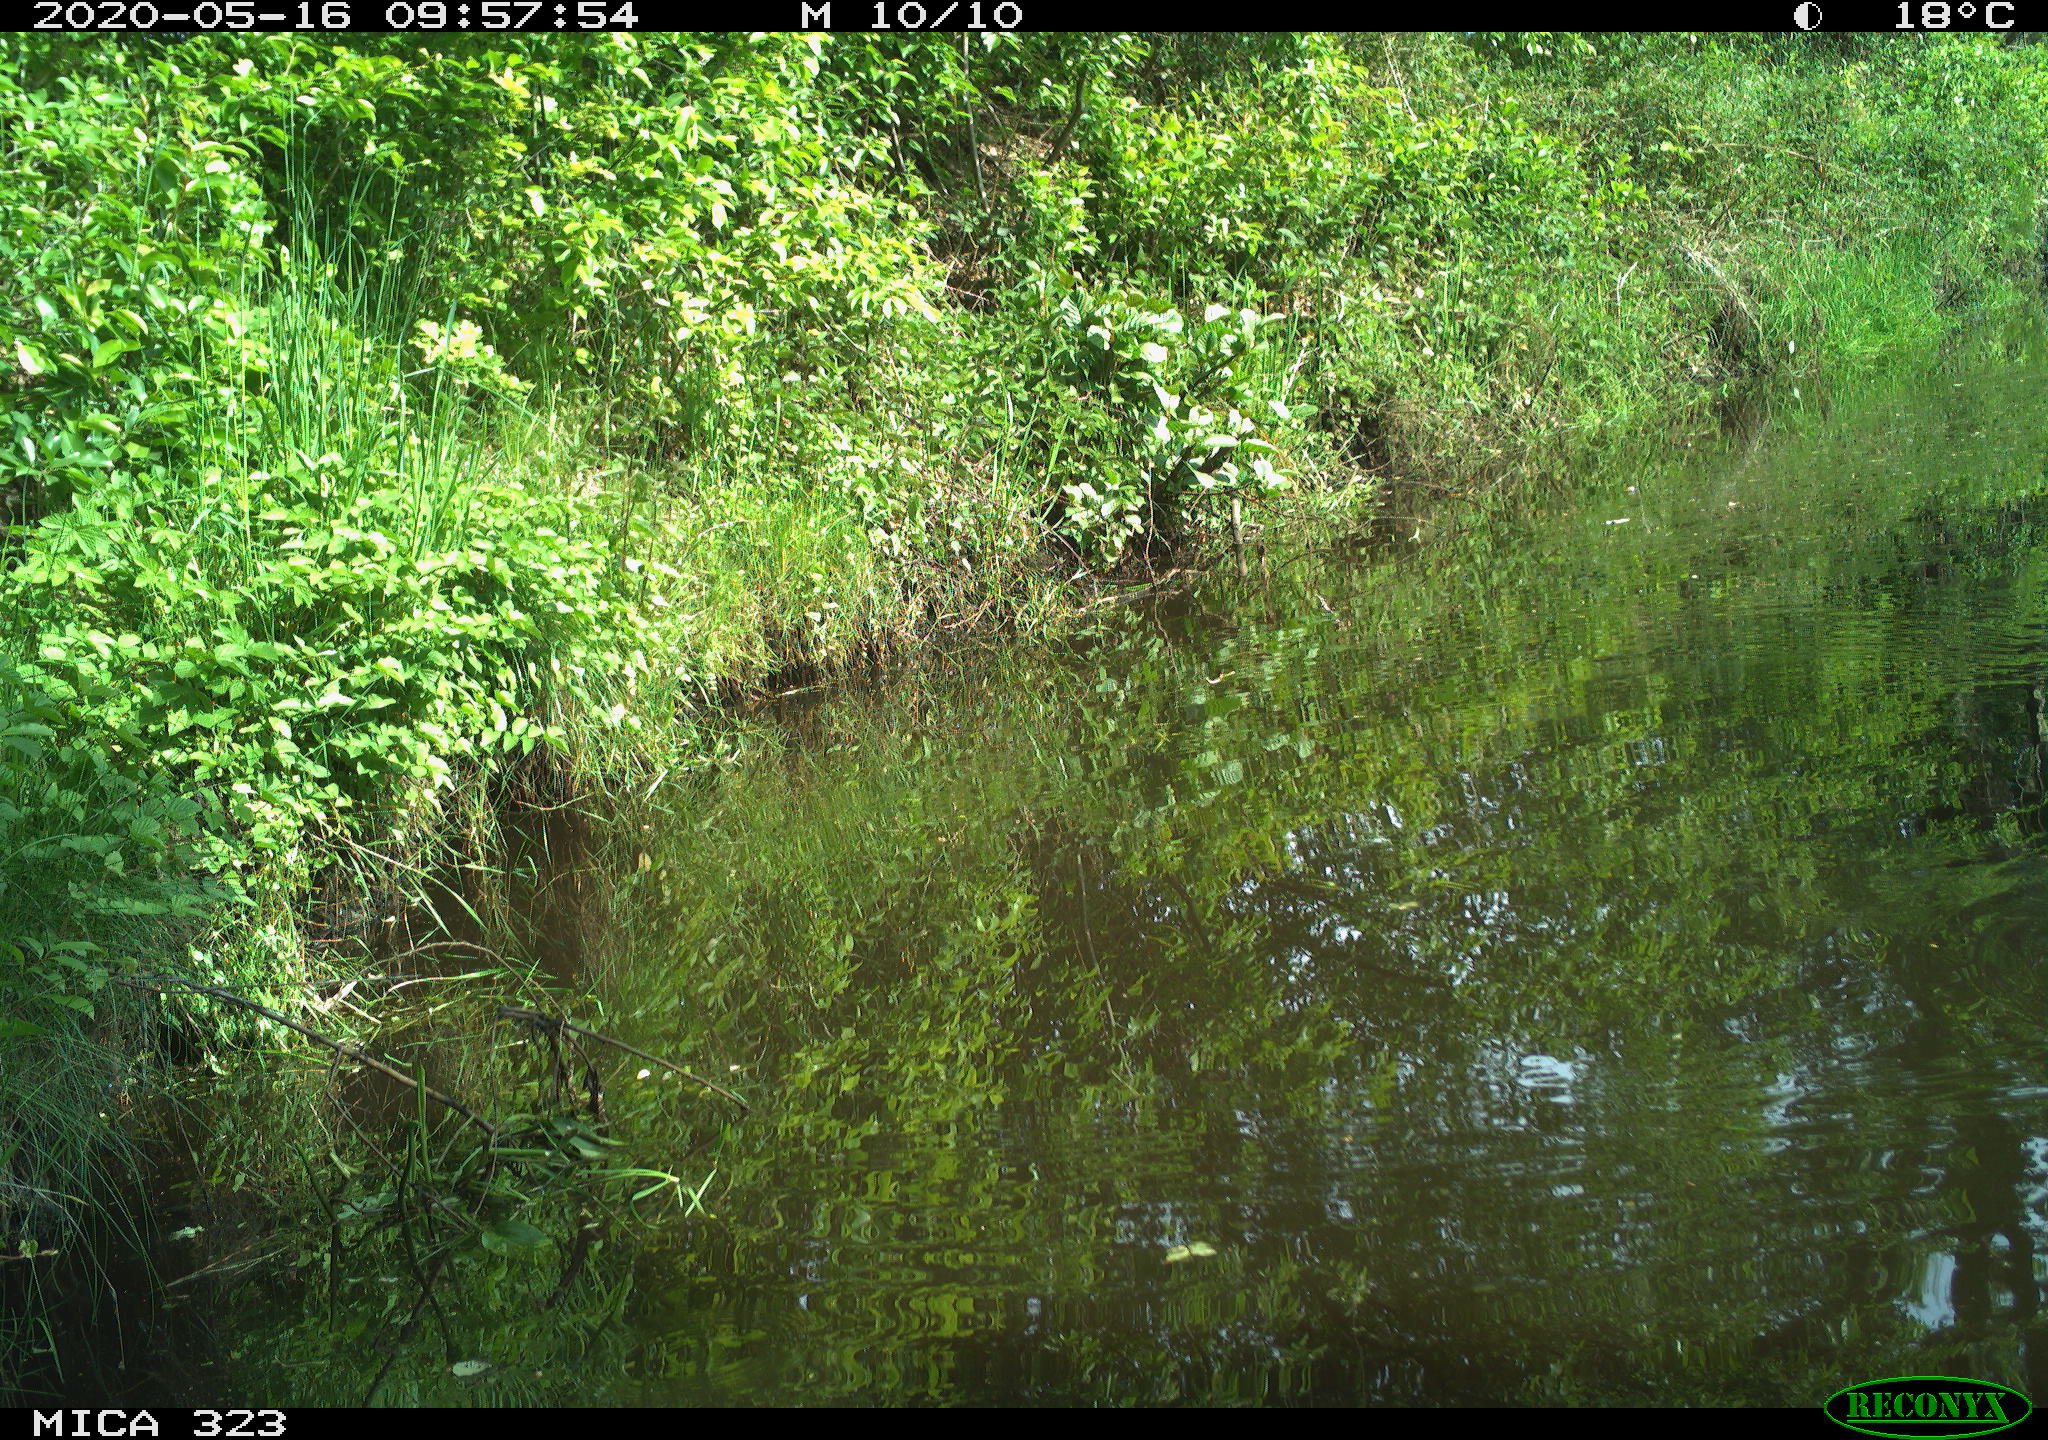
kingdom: Animalia
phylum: Chordata
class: Aves
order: Anseriformes
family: Anatidae
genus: Anas
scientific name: Anas platyrhynchos
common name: Mallard
